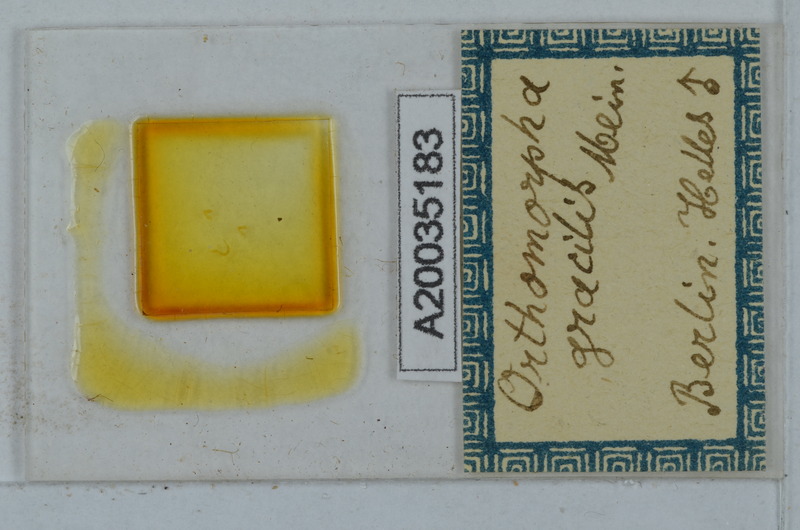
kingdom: Animalia
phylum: Arthropoda
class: Diplopoda
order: Polydesmida
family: Paradoxosomatidae
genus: Oxidus
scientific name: Oxidus gracilis
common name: Greenhouse millipede
